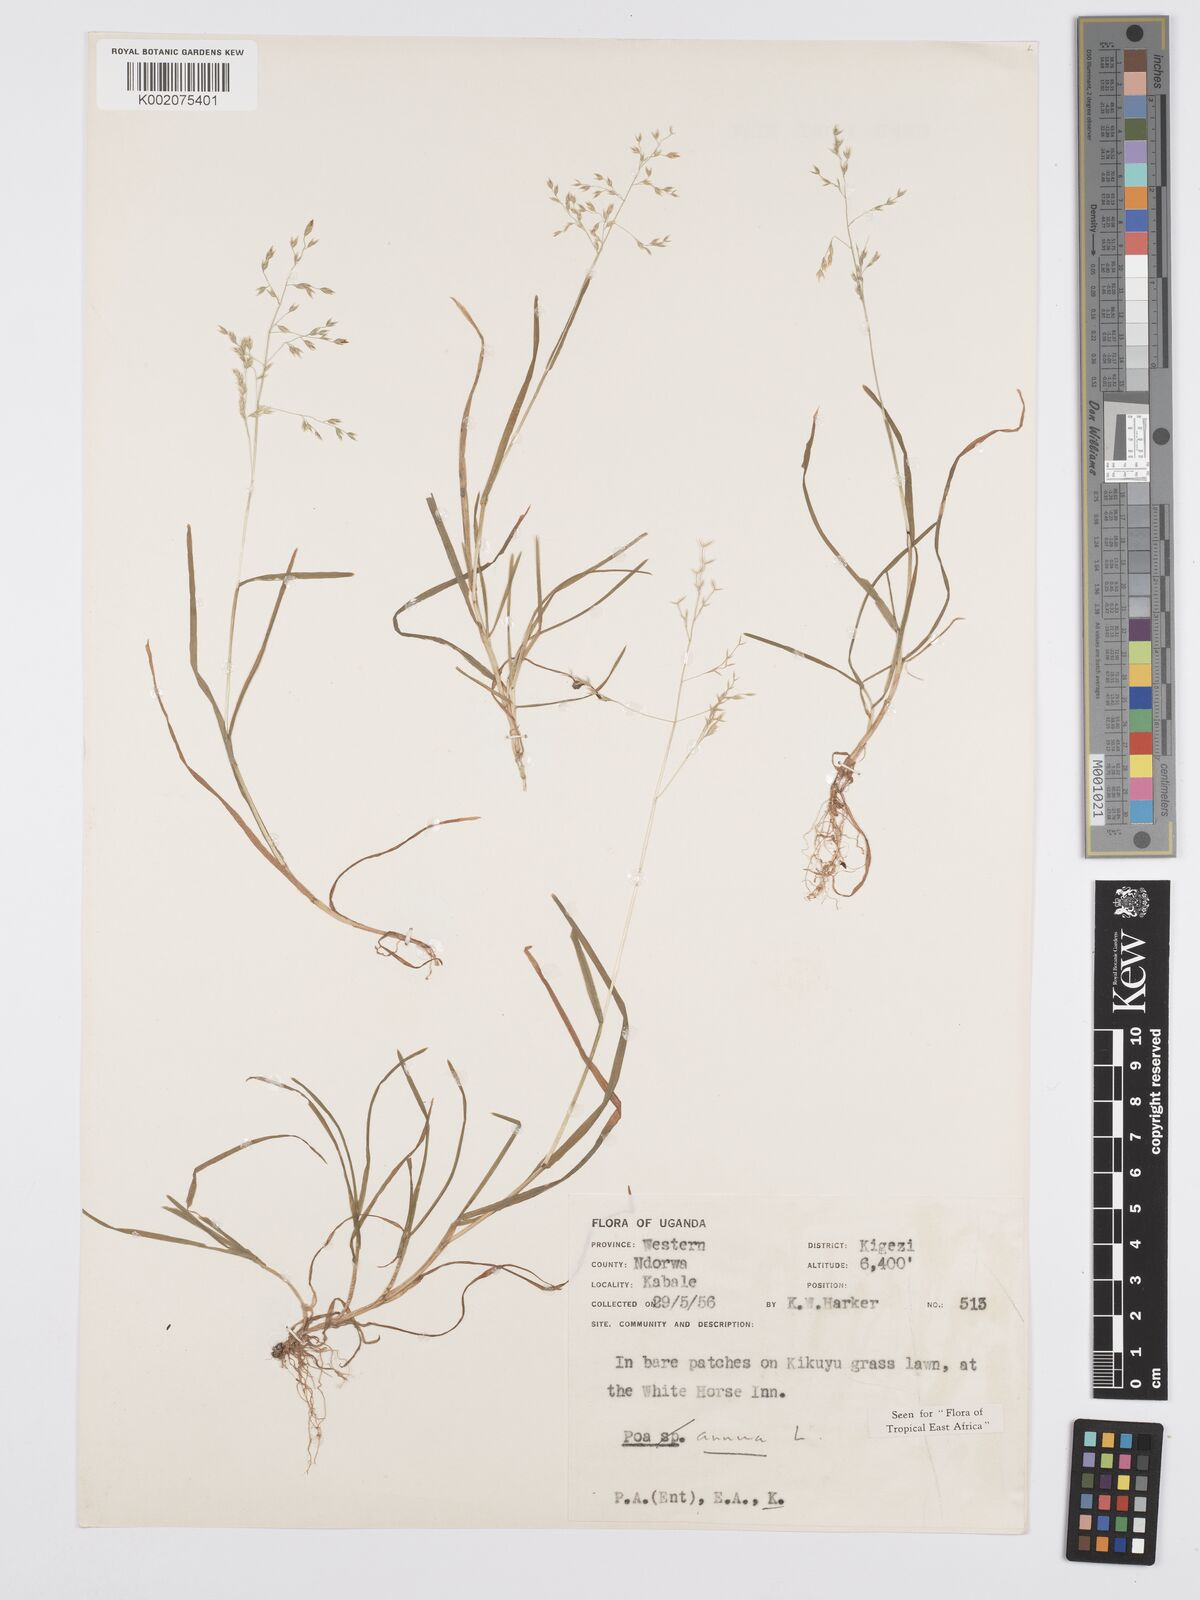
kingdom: Plantae
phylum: Tracheophyta
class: Liliopsida
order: Poales
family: Poaceae
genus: Poa
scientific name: Poa annua
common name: Annual bluegrass
